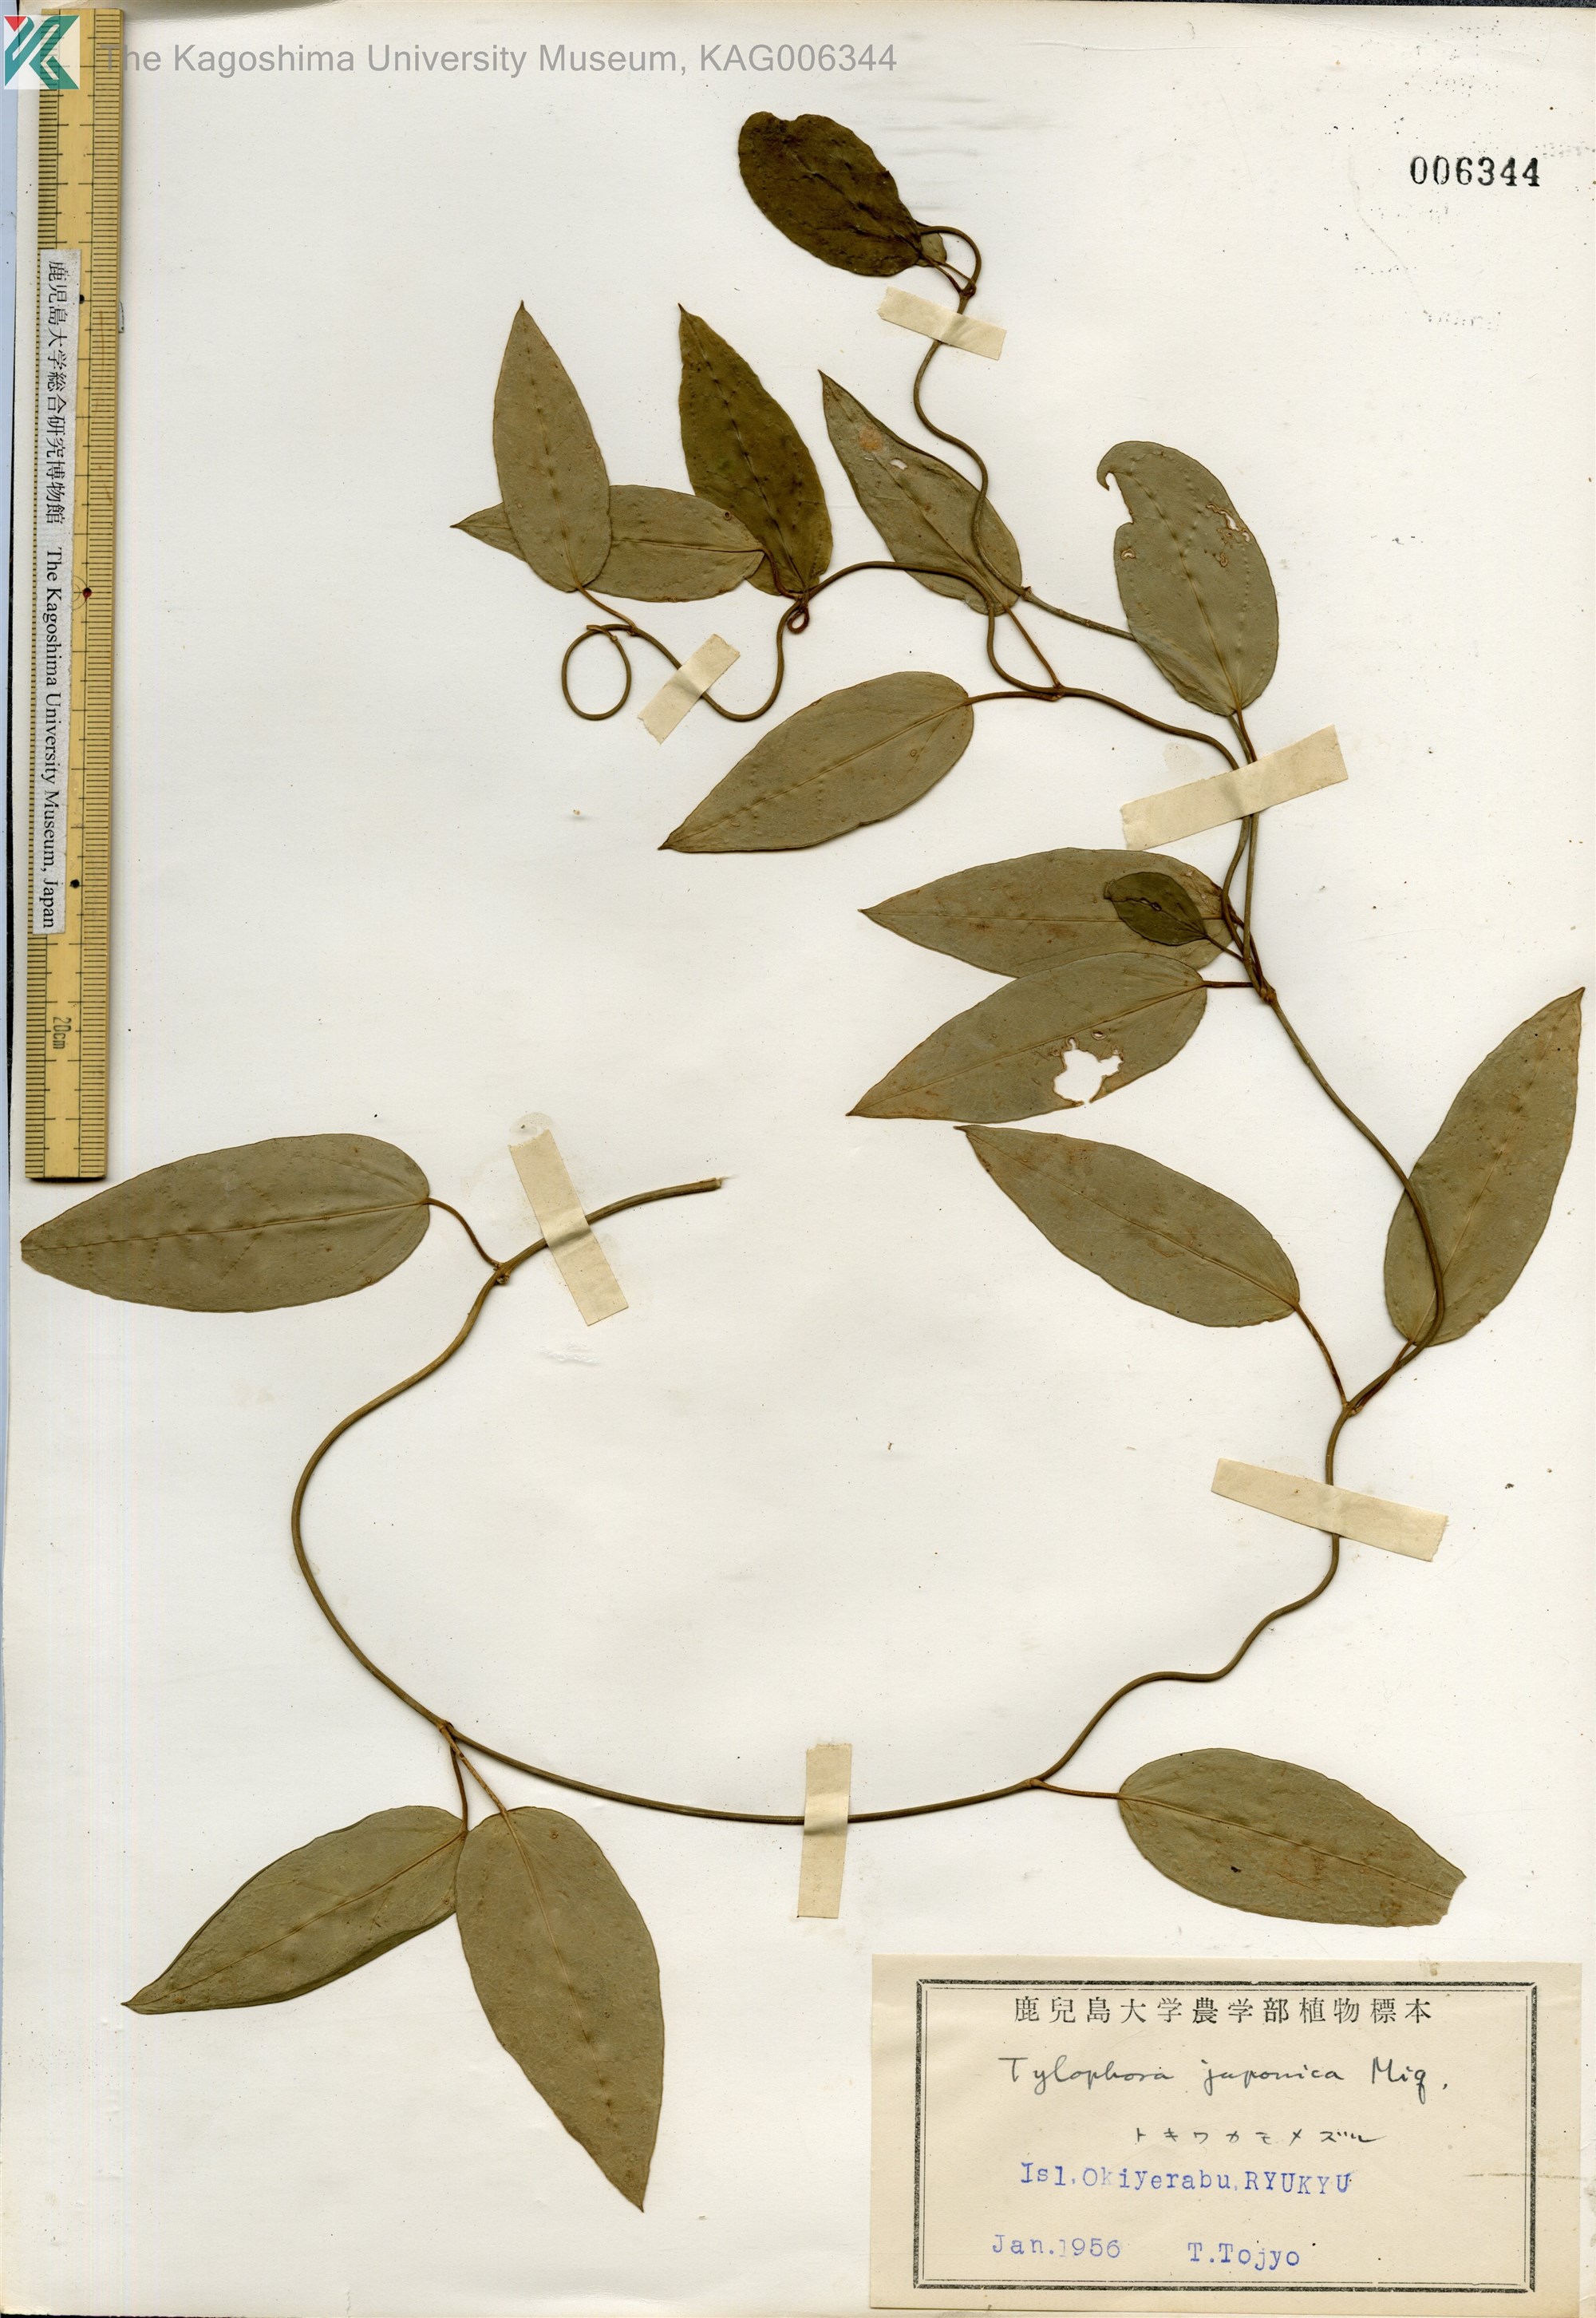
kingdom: Plantae
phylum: Tracheophyta
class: Magnoliopsida
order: Gentianales
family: Apocynaceae
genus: Vincetoxicum
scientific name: Vincetoxicum sieboldii
